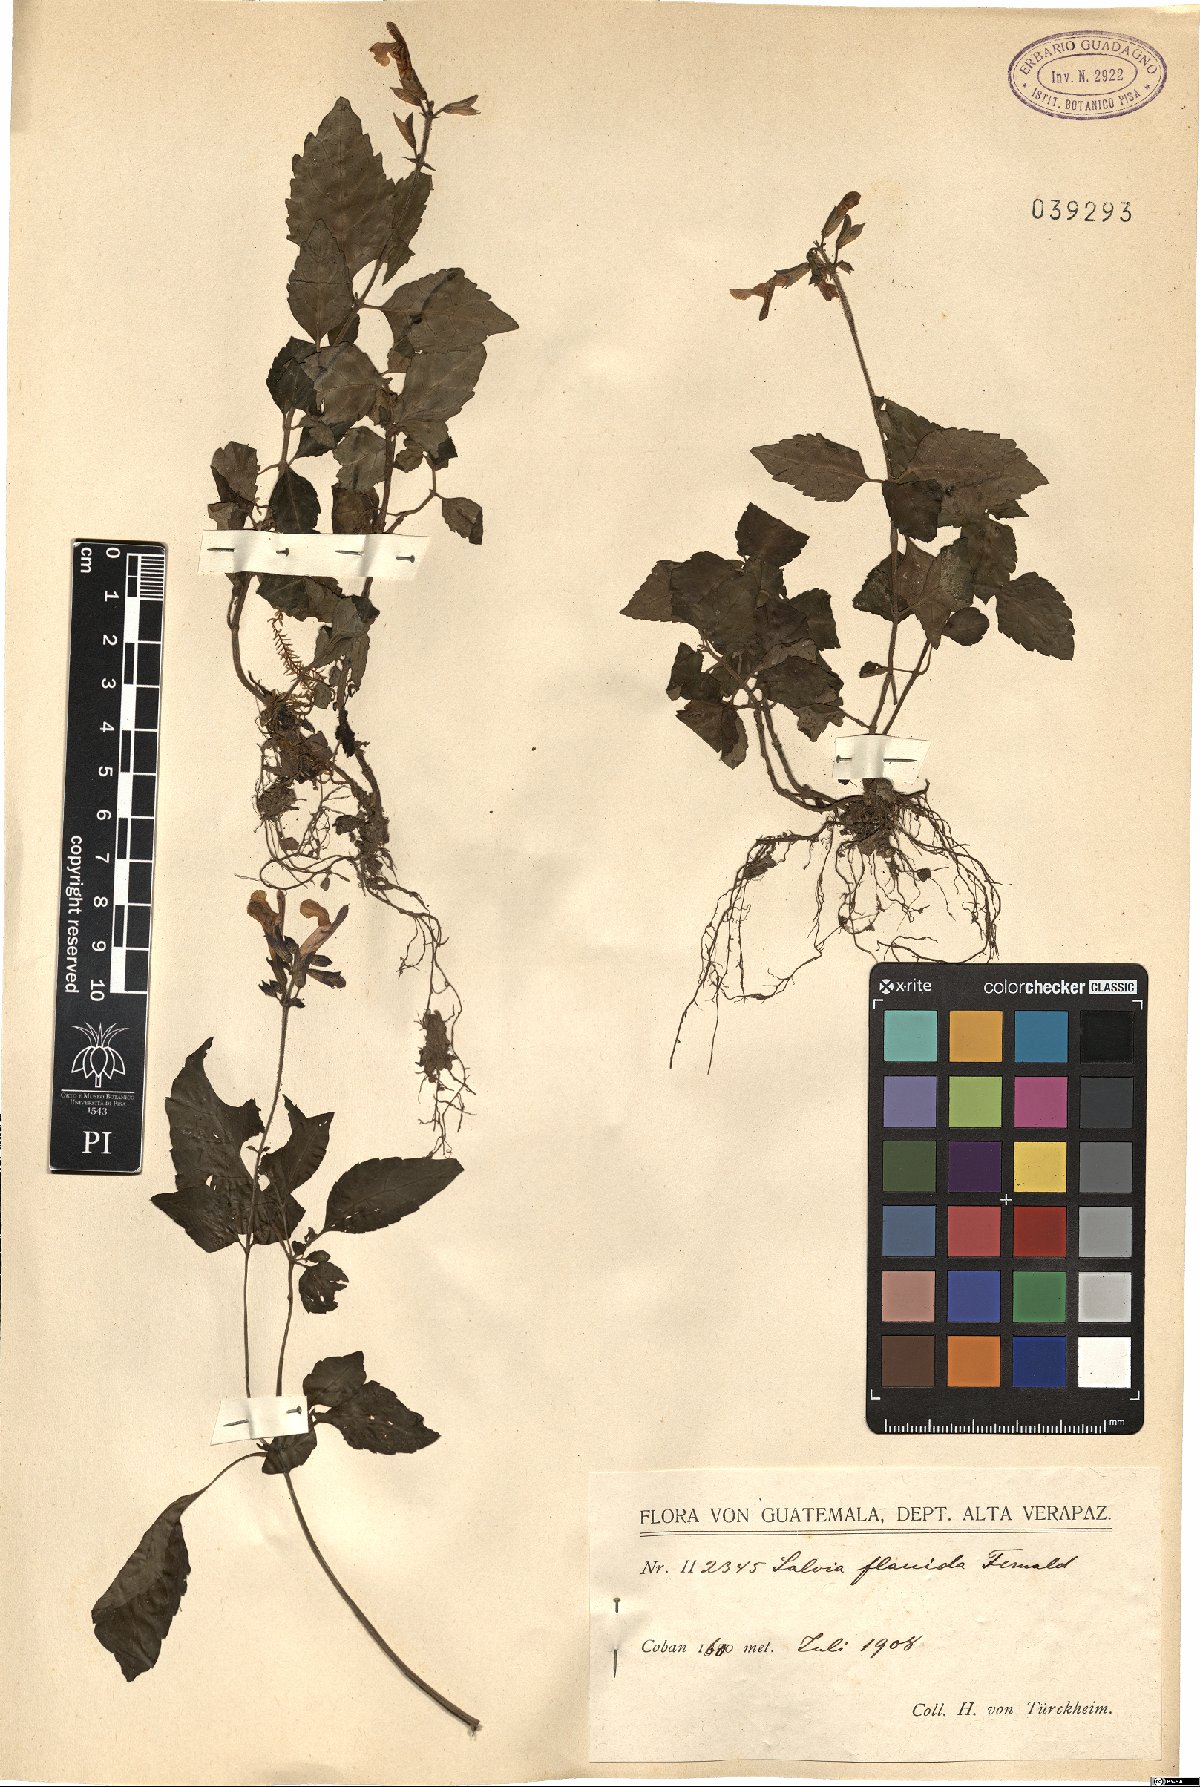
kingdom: Plantae
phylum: Tracheophyta
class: Magnoliopsida
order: Lamiales
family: Lamiaceae
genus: Salvia
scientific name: Salvia flaccida
